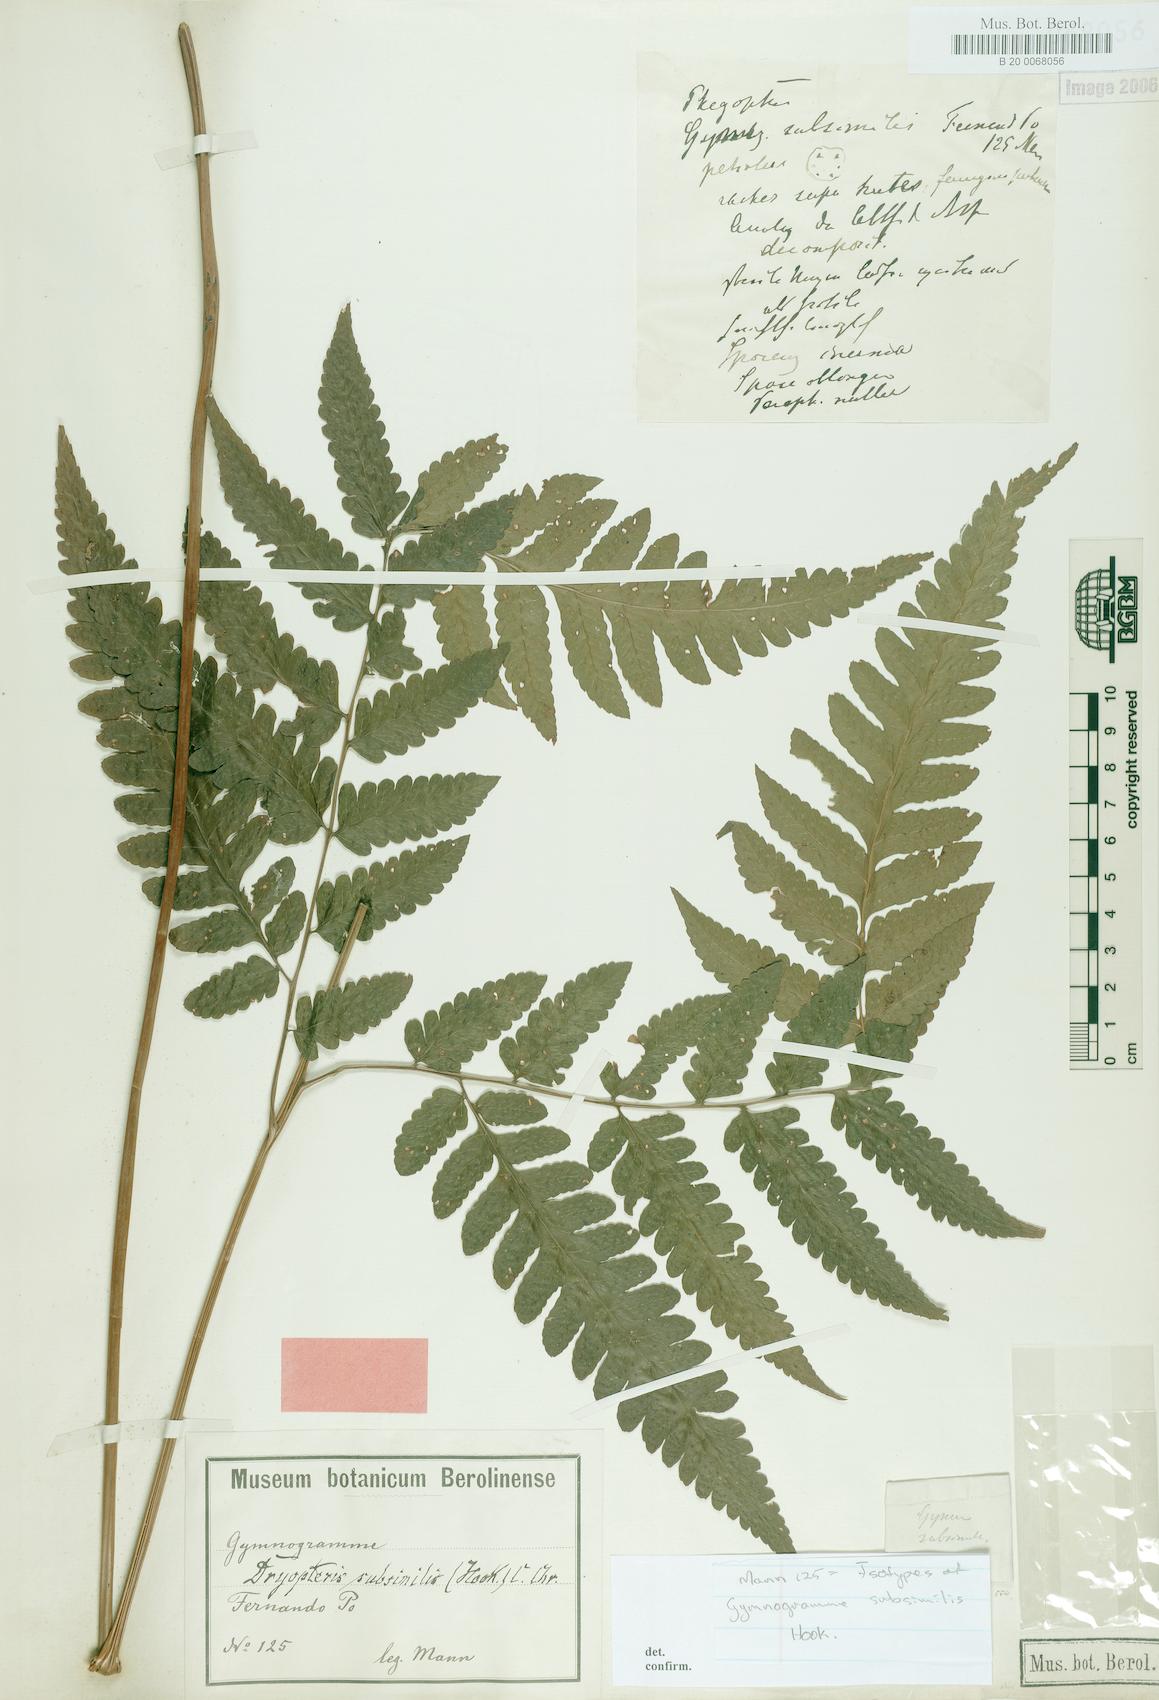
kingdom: Plantae
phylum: Tracheophyta
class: Polypodiopsida
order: Polypodiales
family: Dryopteridaceae
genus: Parapolystichum
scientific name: Parapolystichum subsimile
